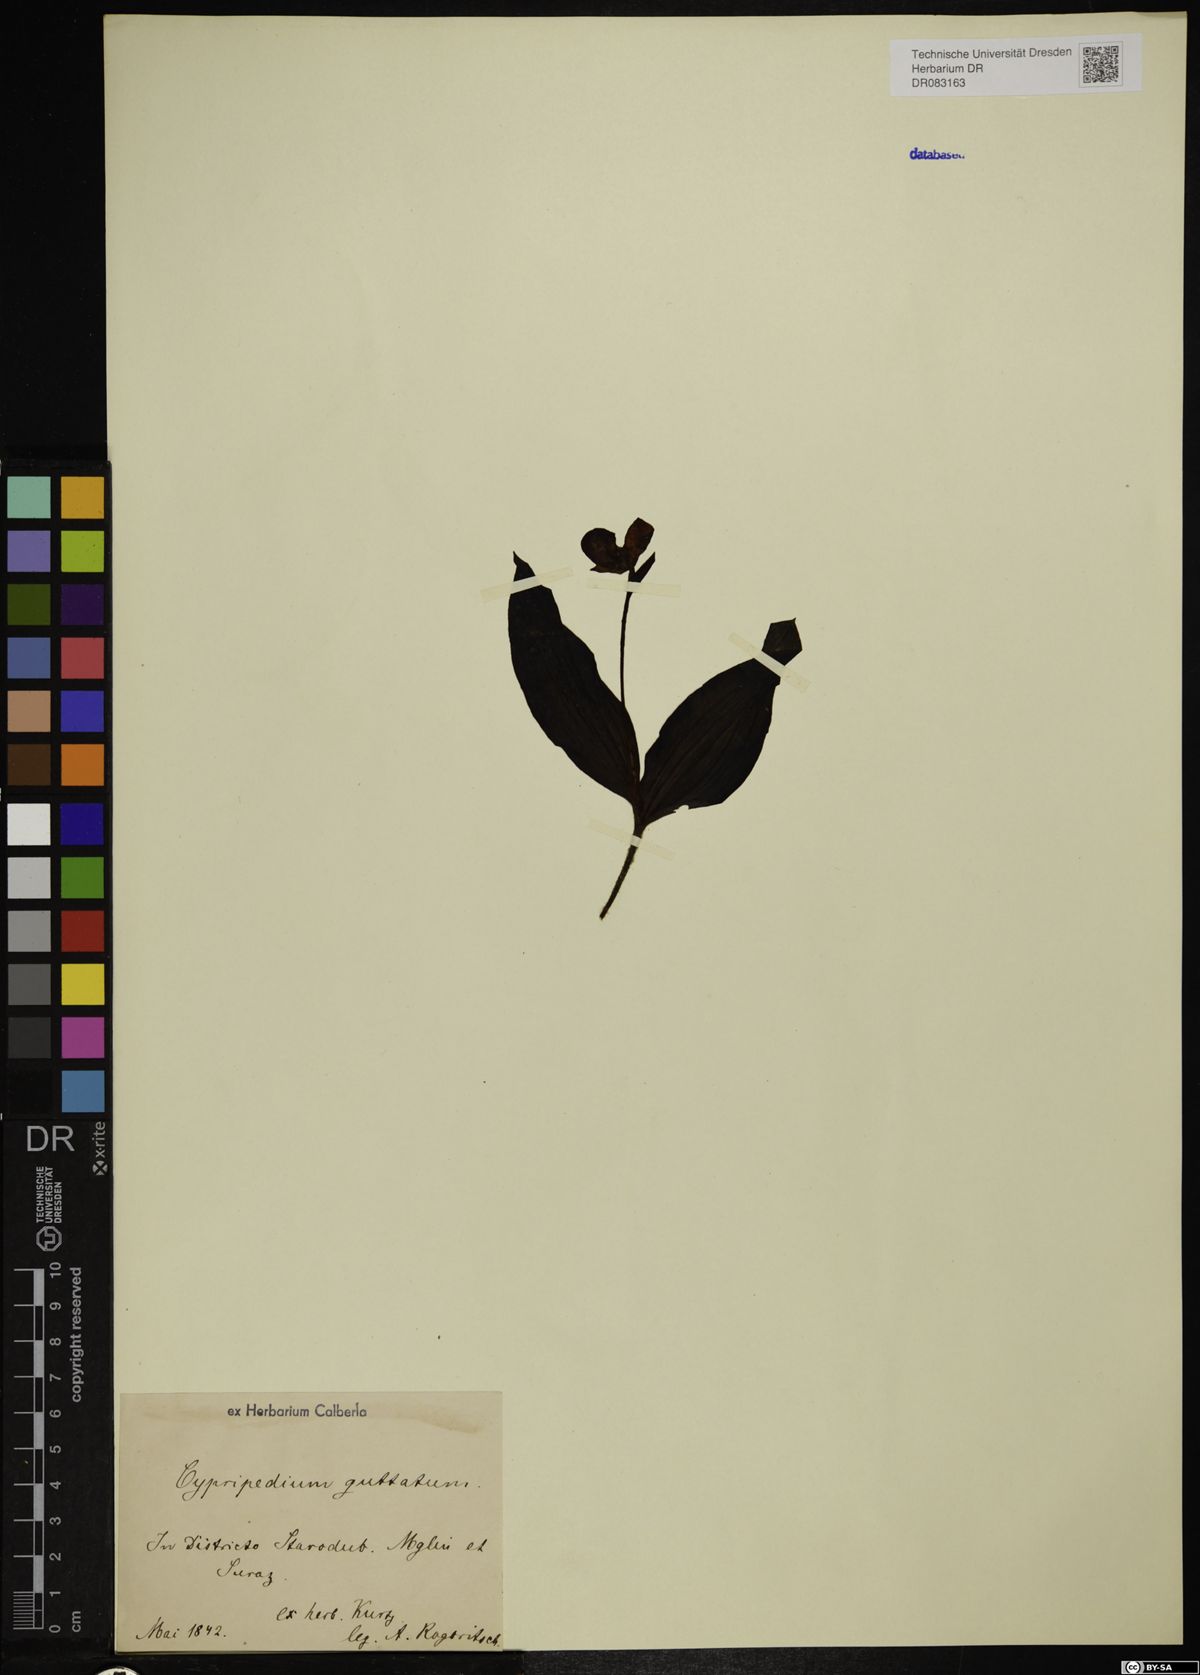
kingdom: Plantae
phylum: Tracheophyta
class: Liliopsida
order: Asparagales
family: Orchidaceae
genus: Cypripedium
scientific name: Cypripedium guttatum
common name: Pink lady slipper
